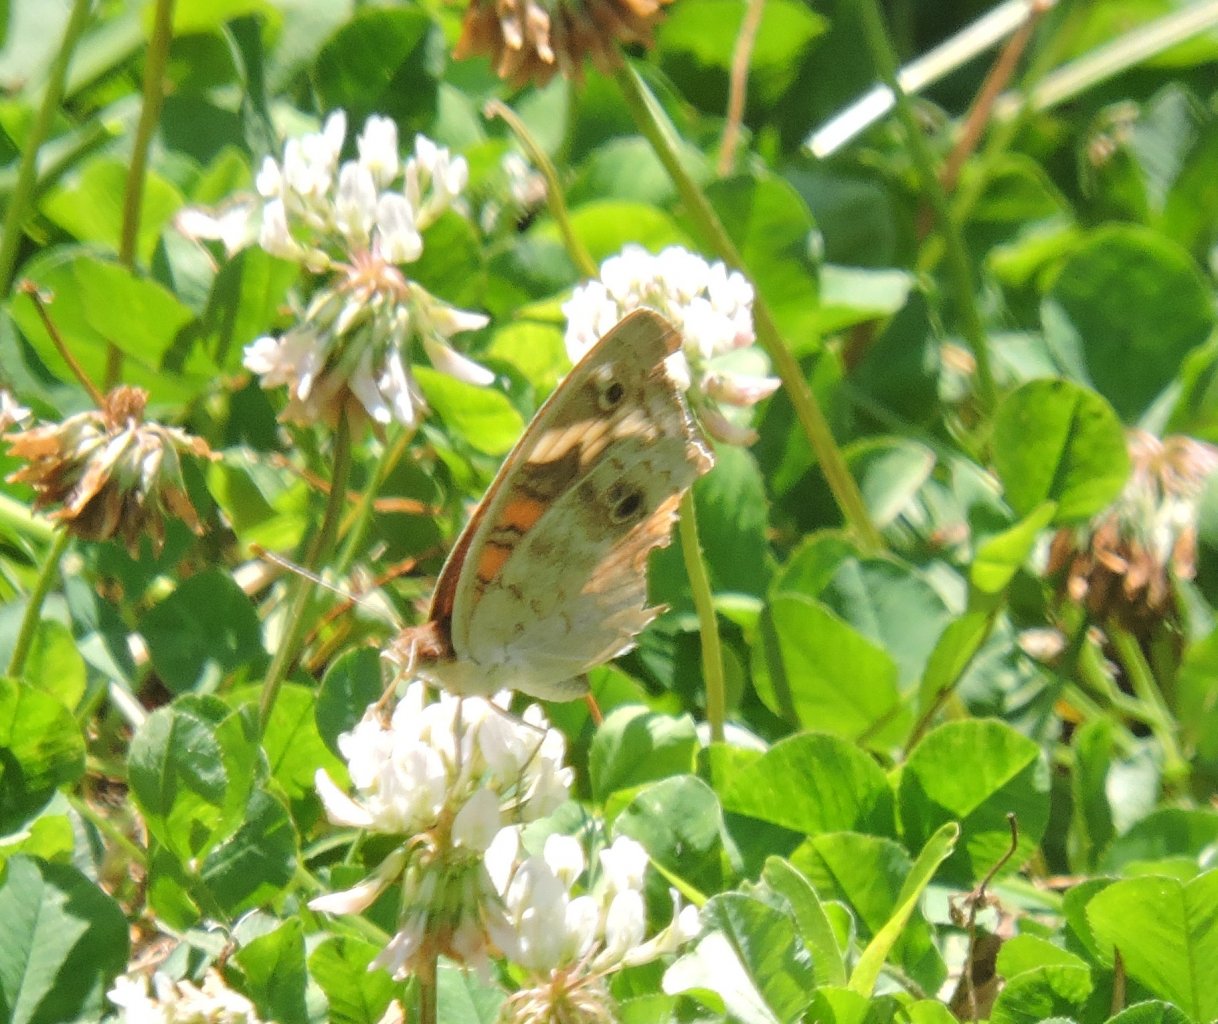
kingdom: Animalia
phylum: Arthropoda
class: Insecta
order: Lepidoptera
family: Nymphalidae
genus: Junonia
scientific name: Junonia coenia
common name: Common Buckeye
